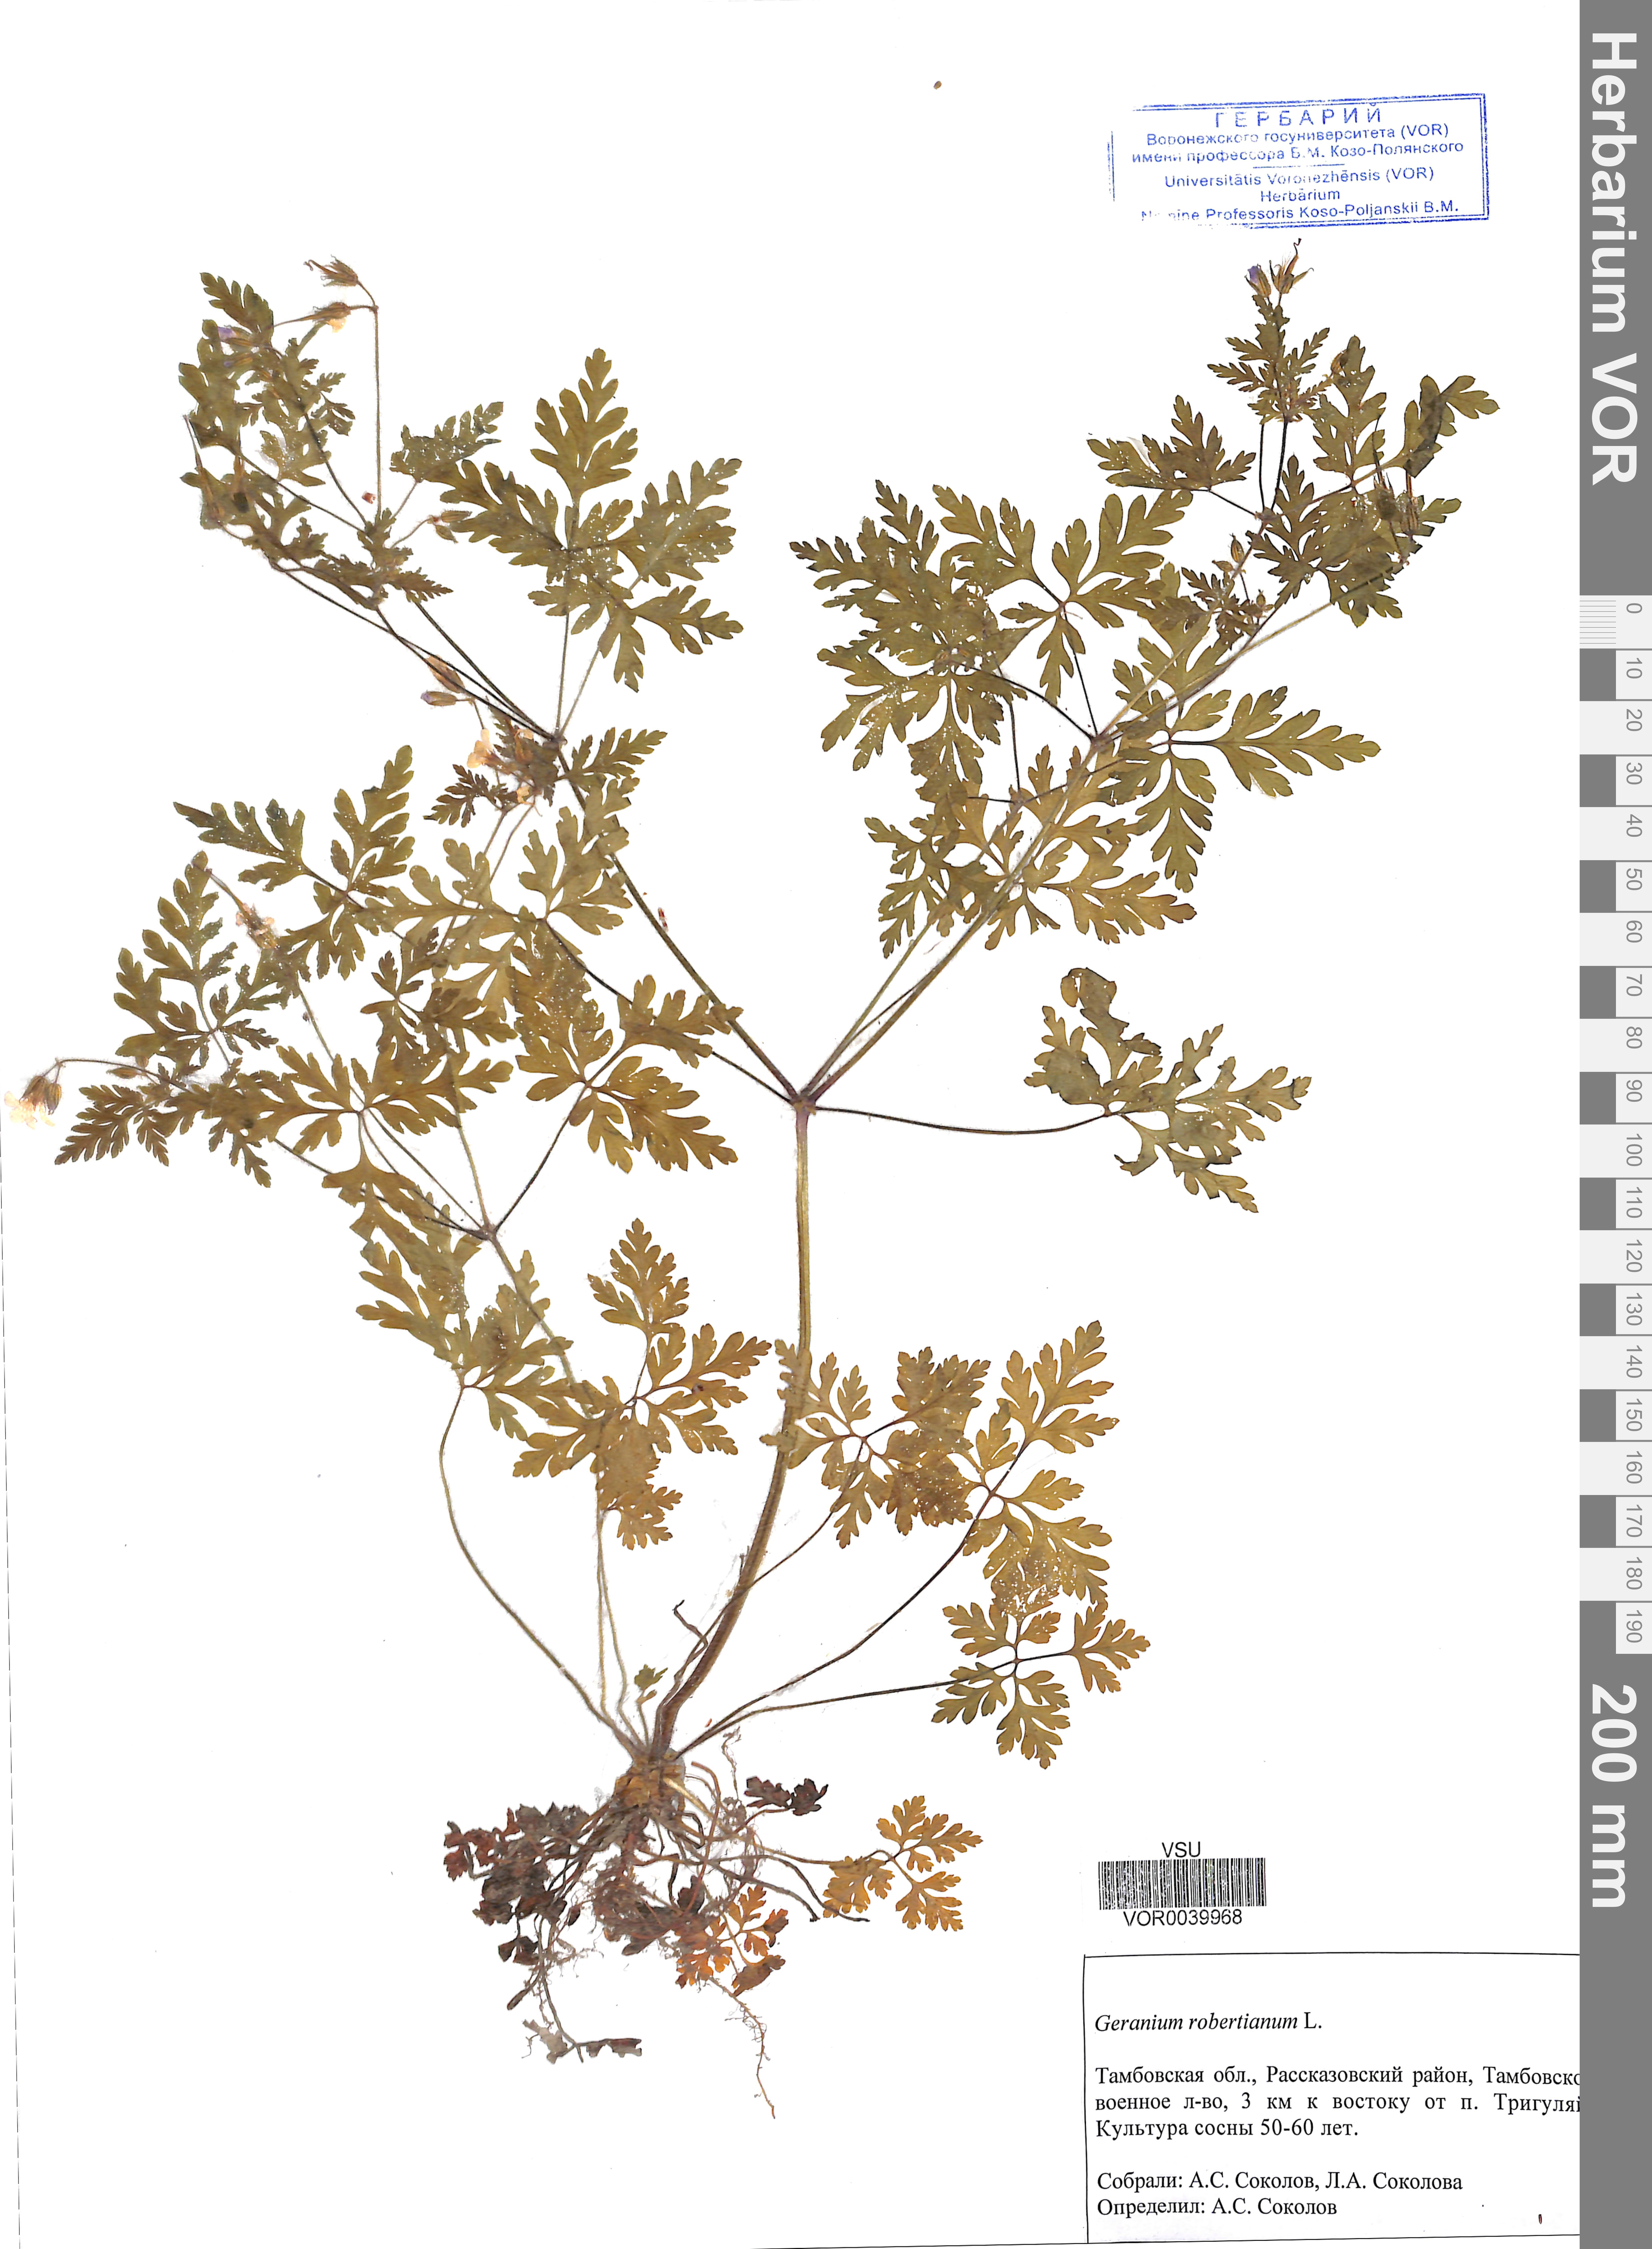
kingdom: Plantae
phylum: Tracheophyta
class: Magnoliopsida
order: Geraniales
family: Geraniaceae
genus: Geranium
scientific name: Geranium robertianum
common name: Herb-robert
